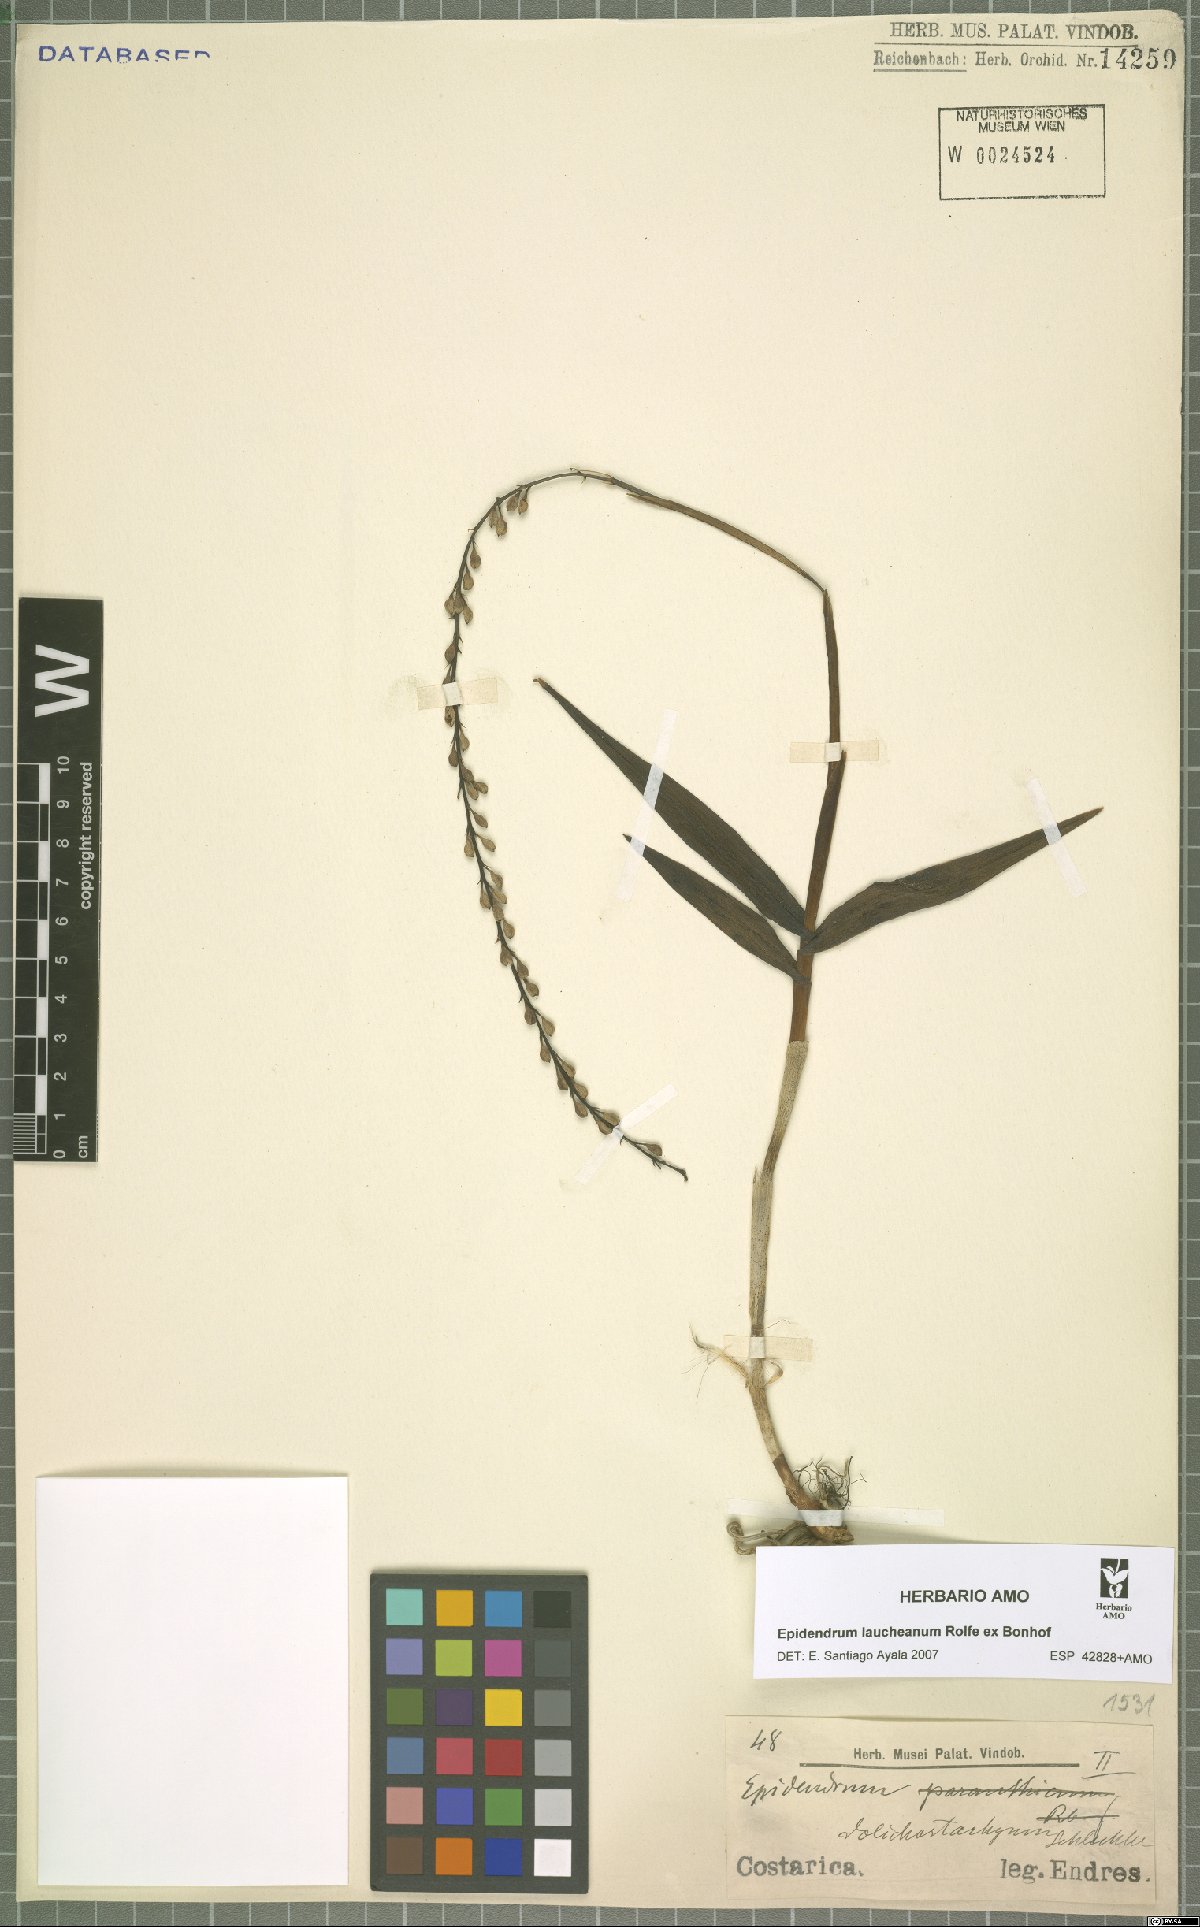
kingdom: Plantae
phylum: Tracheophyta
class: Liliopsida
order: Asparagales
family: Orchidaceae
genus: Epidendrum
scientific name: Epidendrum laucheanum
